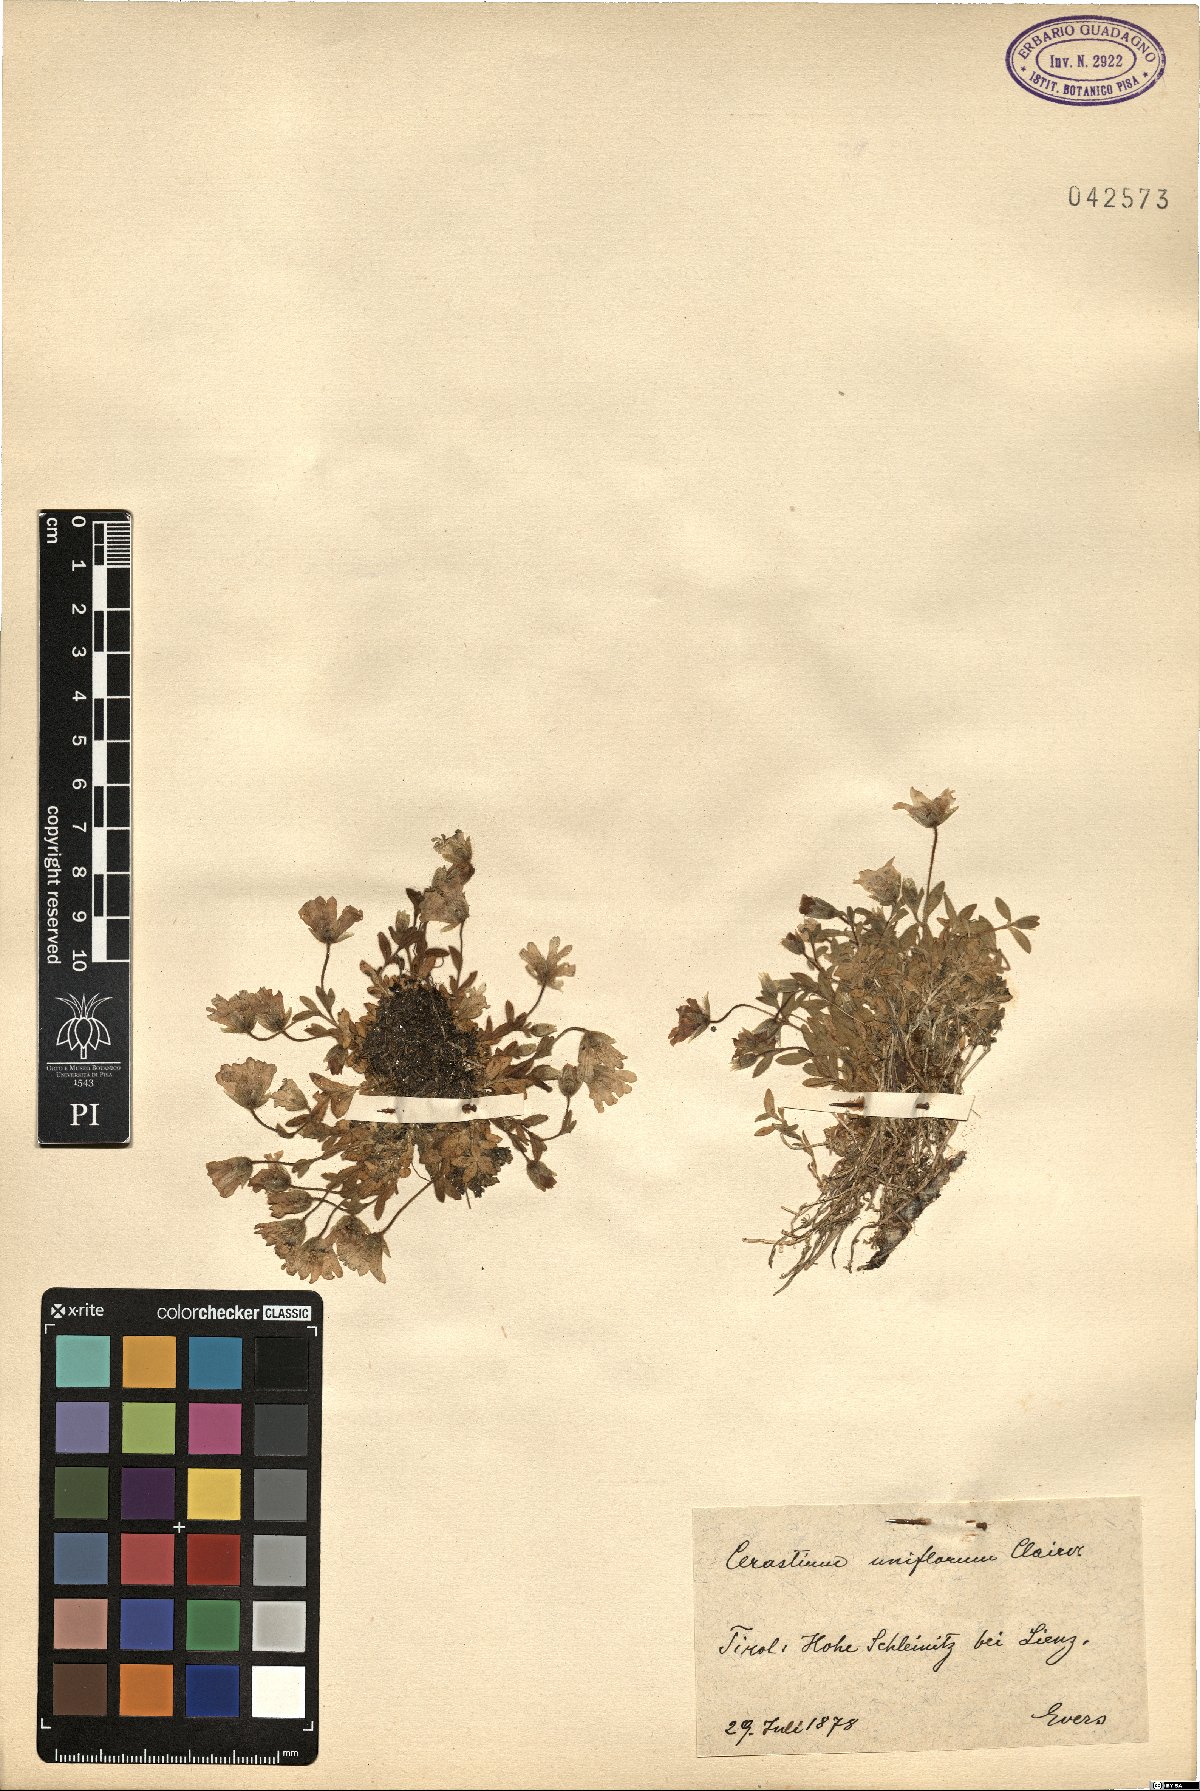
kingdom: Plantae
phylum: Tracheophyta
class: Magnoliopsida
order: Caryophyllales
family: Caryophyllaceae
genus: Cerastium
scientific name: Cerastium uniflorum
